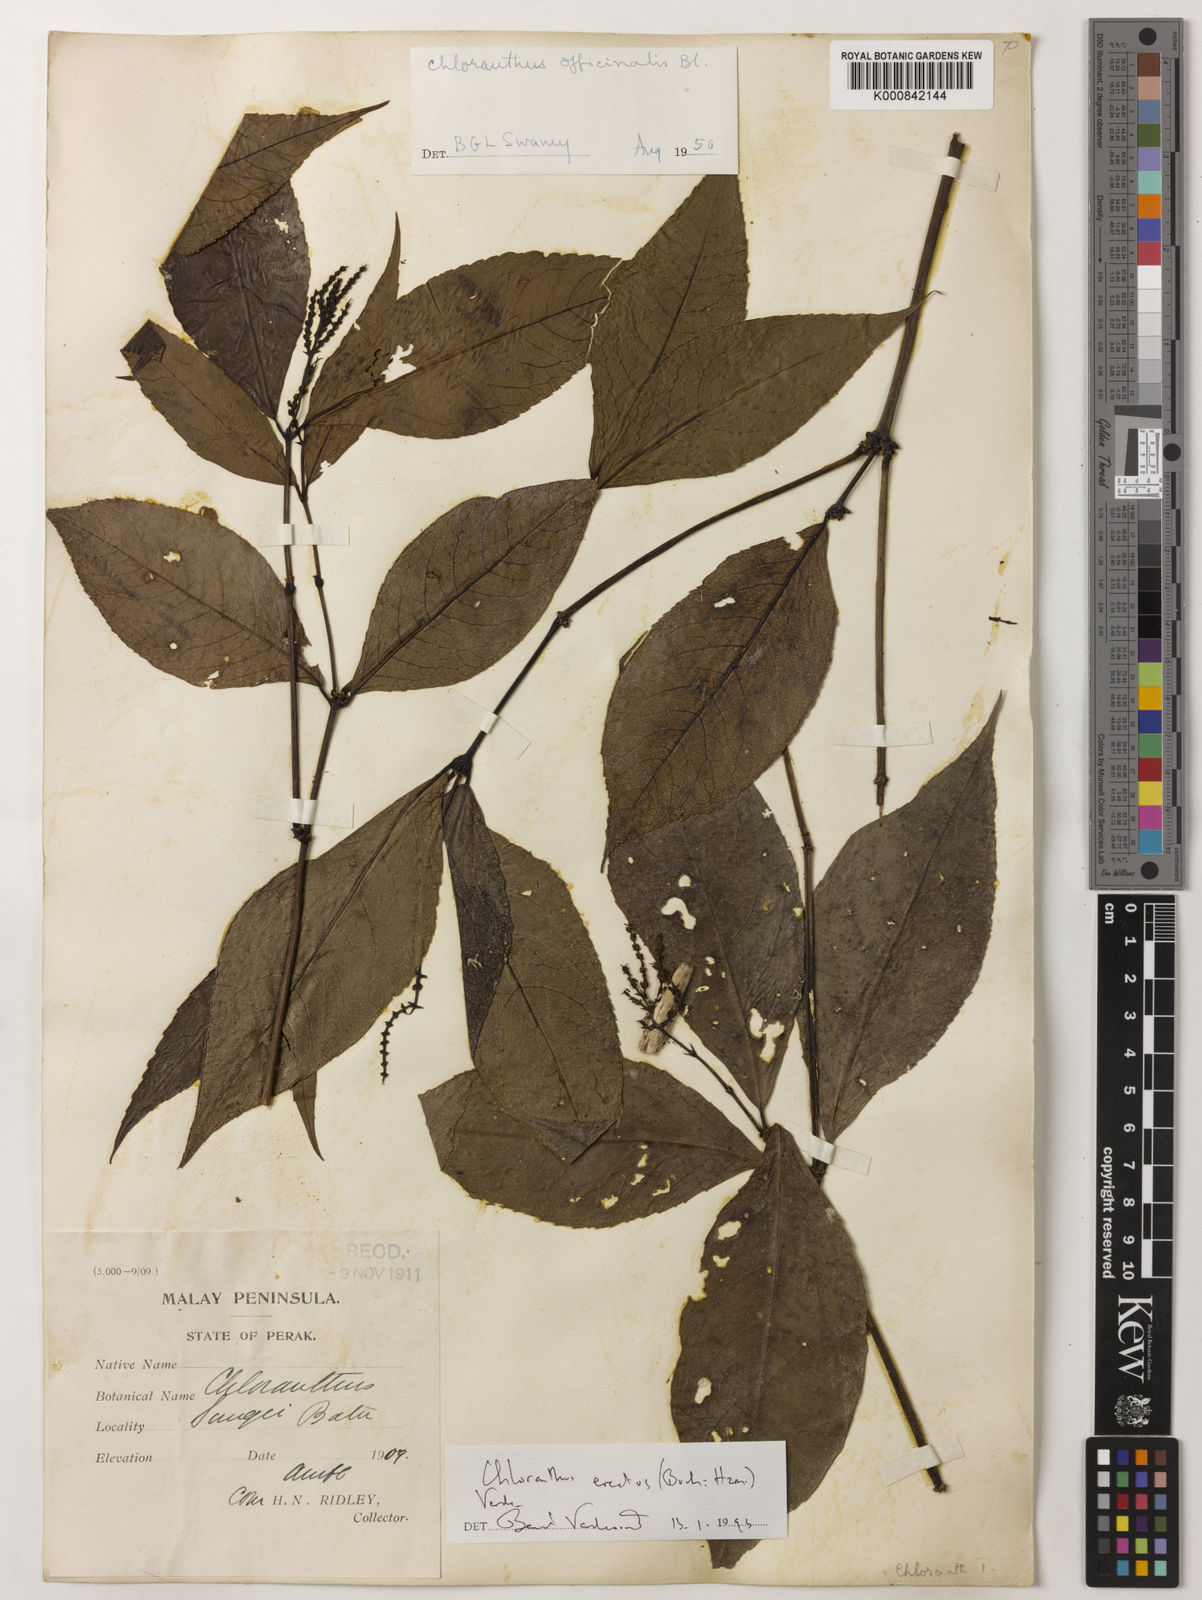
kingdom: Plantae
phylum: Tracheophyta
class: Magnoliopsida
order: Chloranthales
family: Chloranthaceae
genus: Chloranthus
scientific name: Chloranthus
